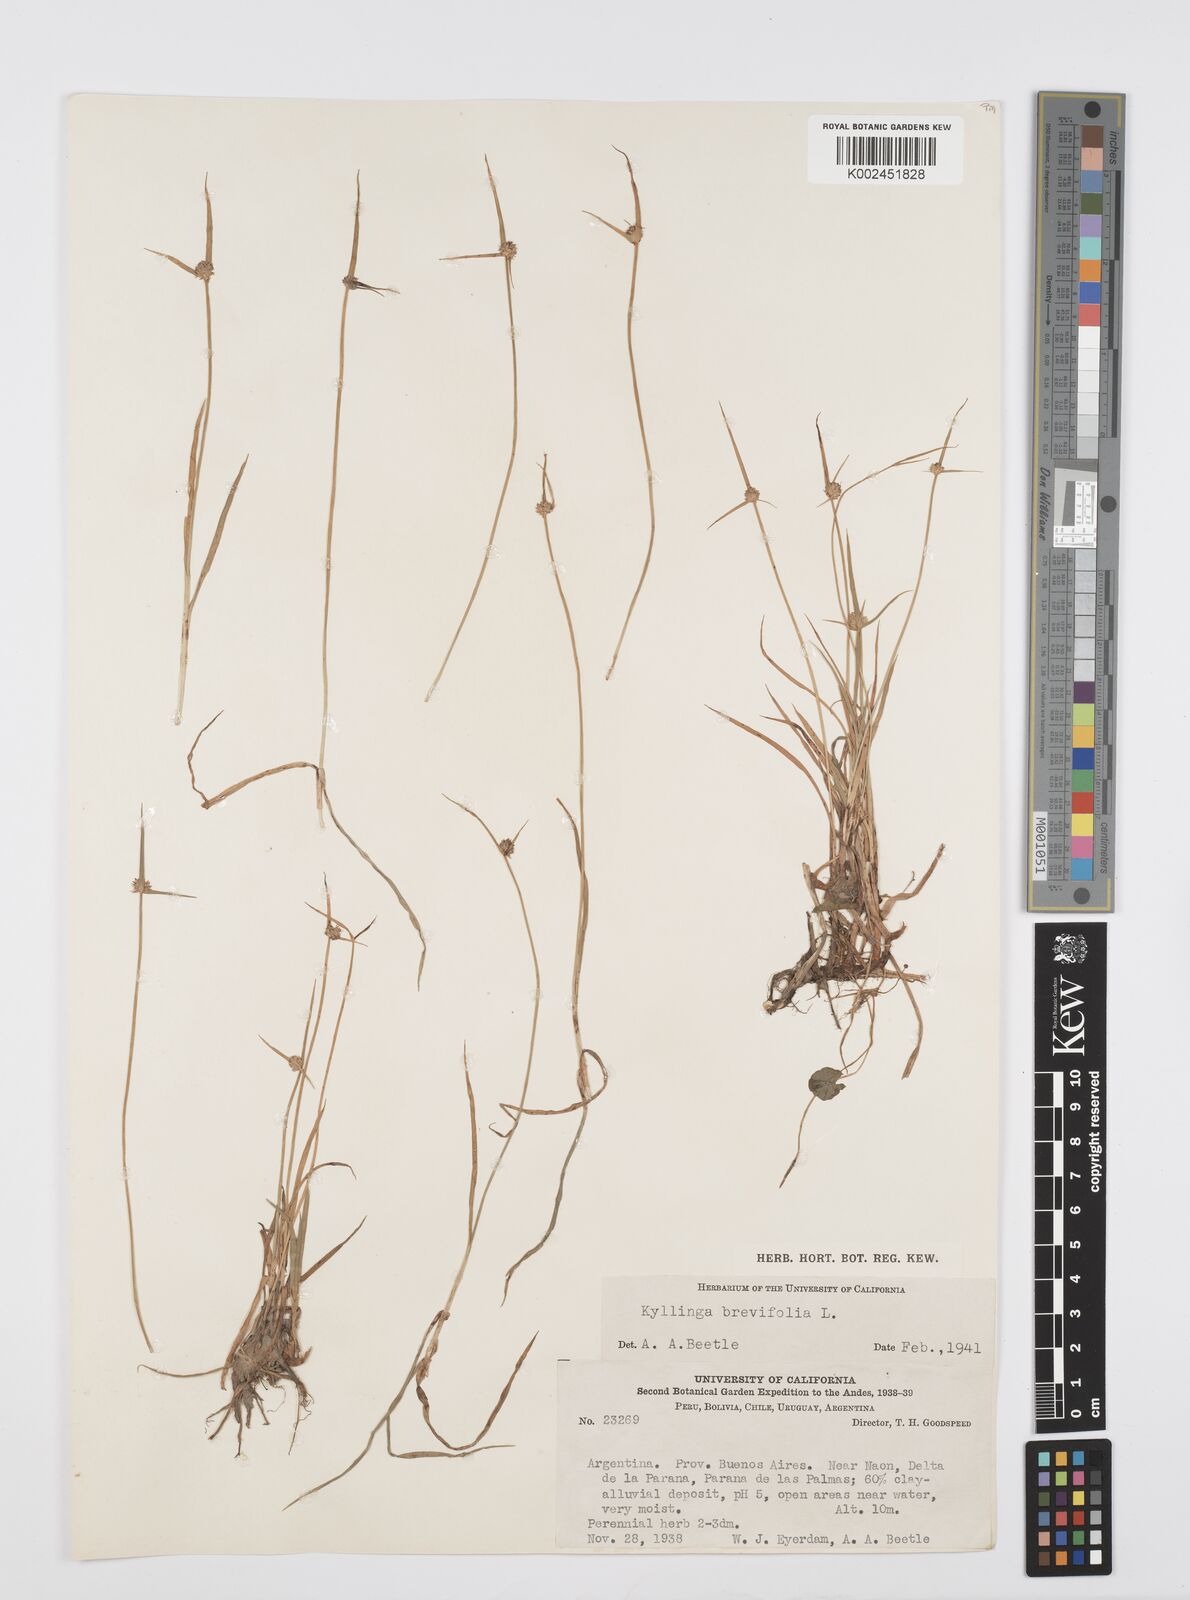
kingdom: Plantae
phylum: Tracheophyta
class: Liliopsida
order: Poales
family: Cyperaceae
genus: Cyperus
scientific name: Cyperus brevifolius
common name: Globe kyllinga
